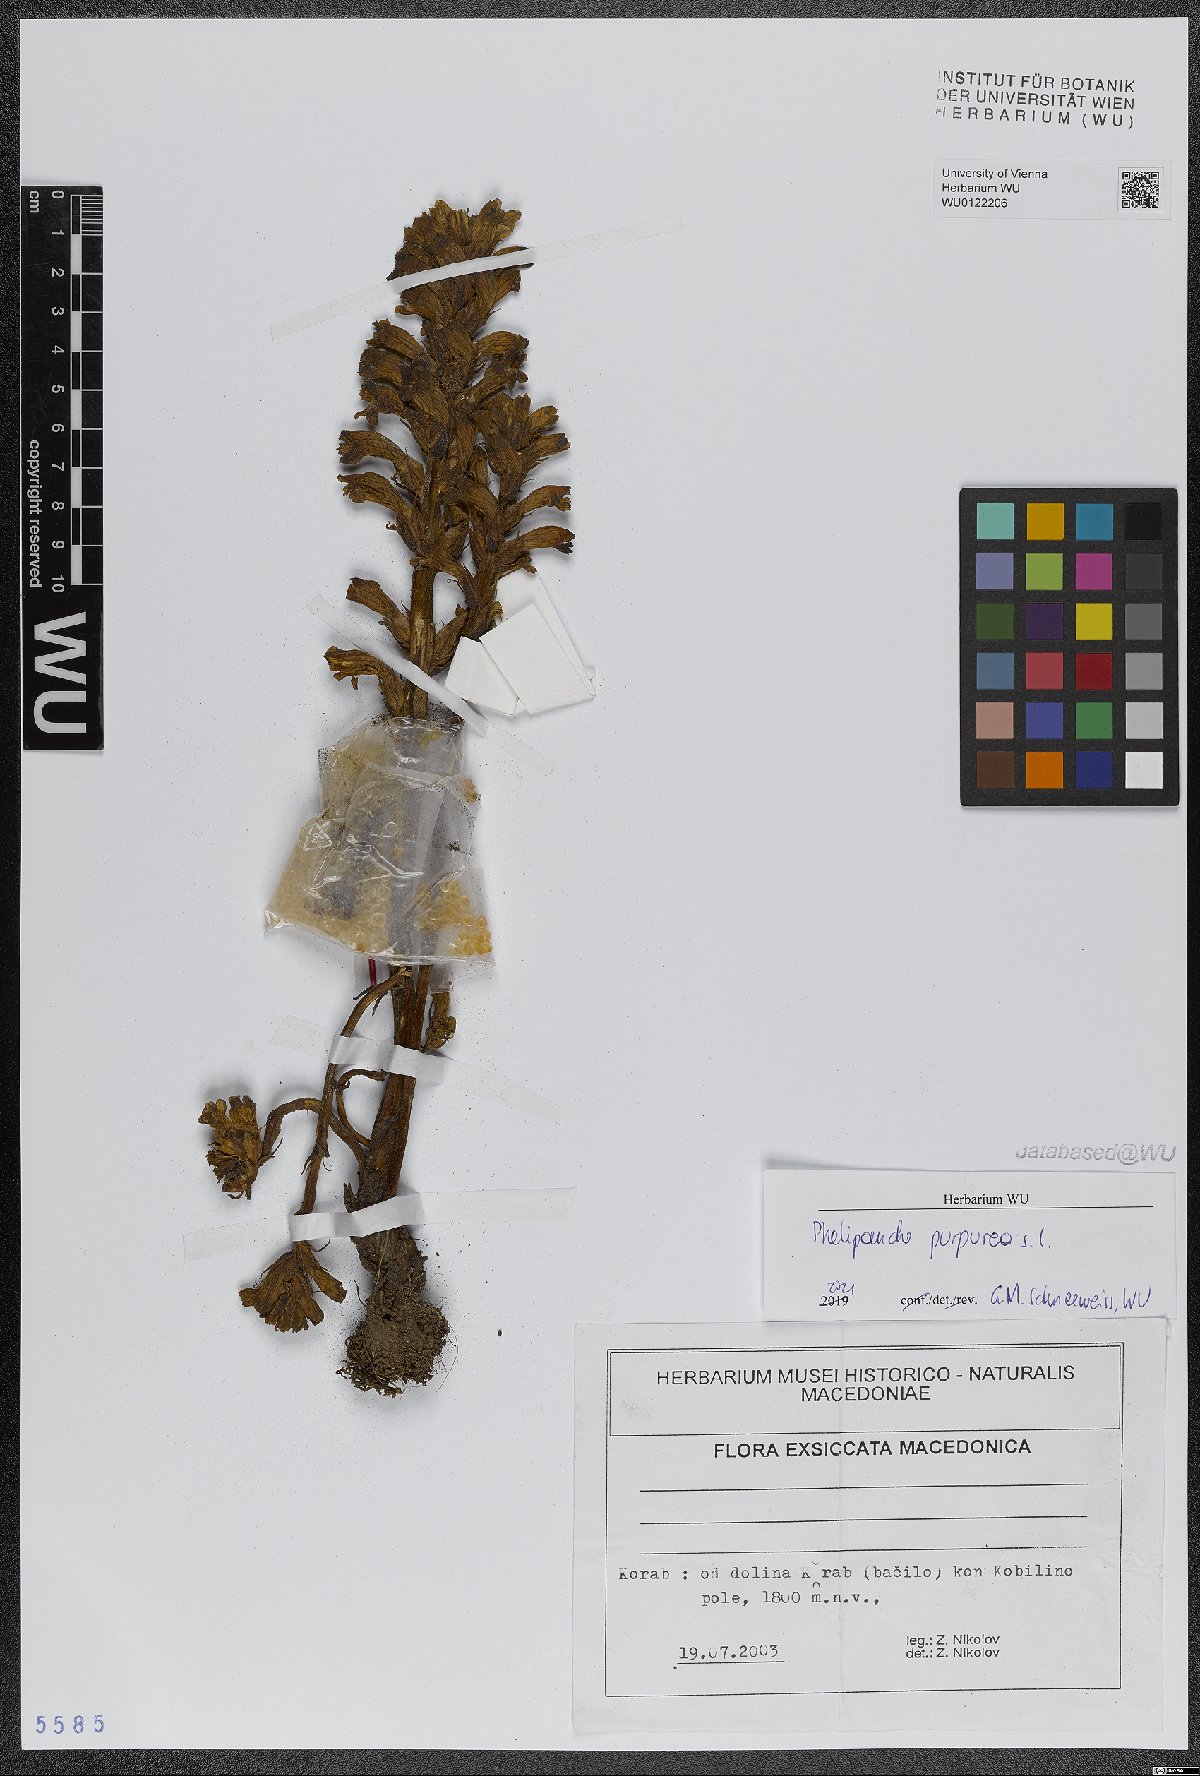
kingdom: Plantae
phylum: Tracheophyta
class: Magnoliopsida
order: Lamiales
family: Orobanchaceae
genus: Phelipanche
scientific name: Phelipanche purpurea
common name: Purple broomrape
